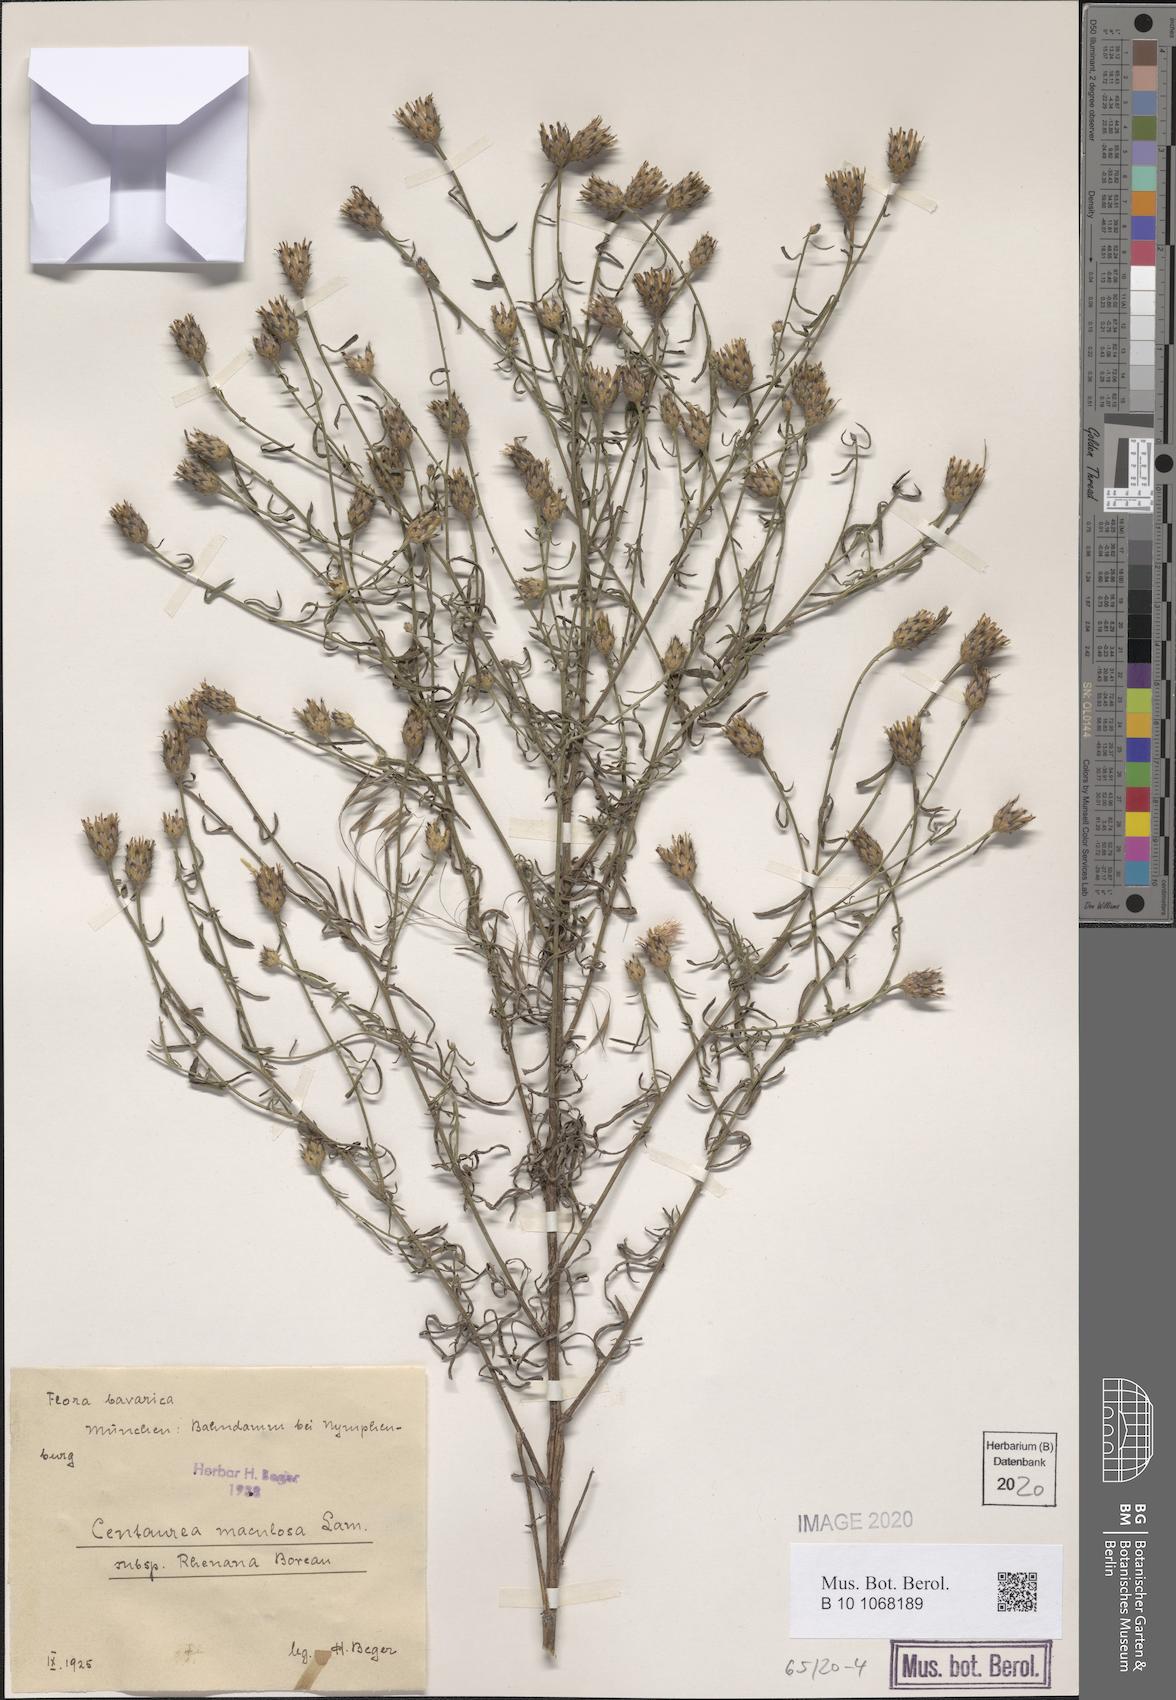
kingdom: Plantae
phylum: Tracheophyta
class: Magnoliopsida
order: Asterales
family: Asteraceae
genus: Centaurea
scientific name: Centaurea stoebe
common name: Spotted knapweed
